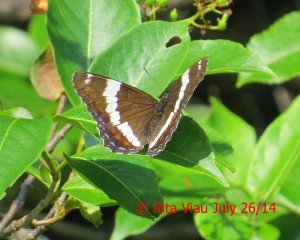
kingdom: Animalia
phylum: Arthropoda
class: Insecta
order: Lepidoptera
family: Nymphalidae
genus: Limenitis
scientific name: Limenitis arthemis
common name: Red-spotted Admiral
